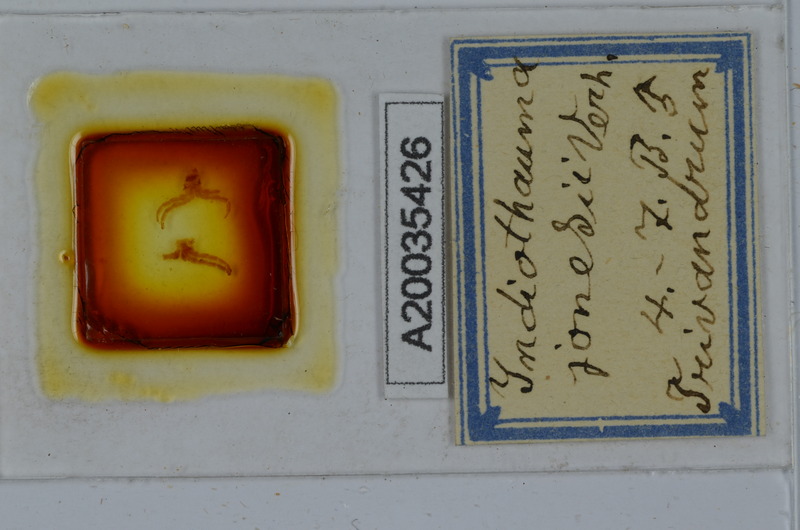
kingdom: Animalia
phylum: Arthropoda
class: Diplopoda
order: Spirostreptida
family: Harpagophoridae
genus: Harpurostreptus
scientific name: Harpurostreptus jonesi
